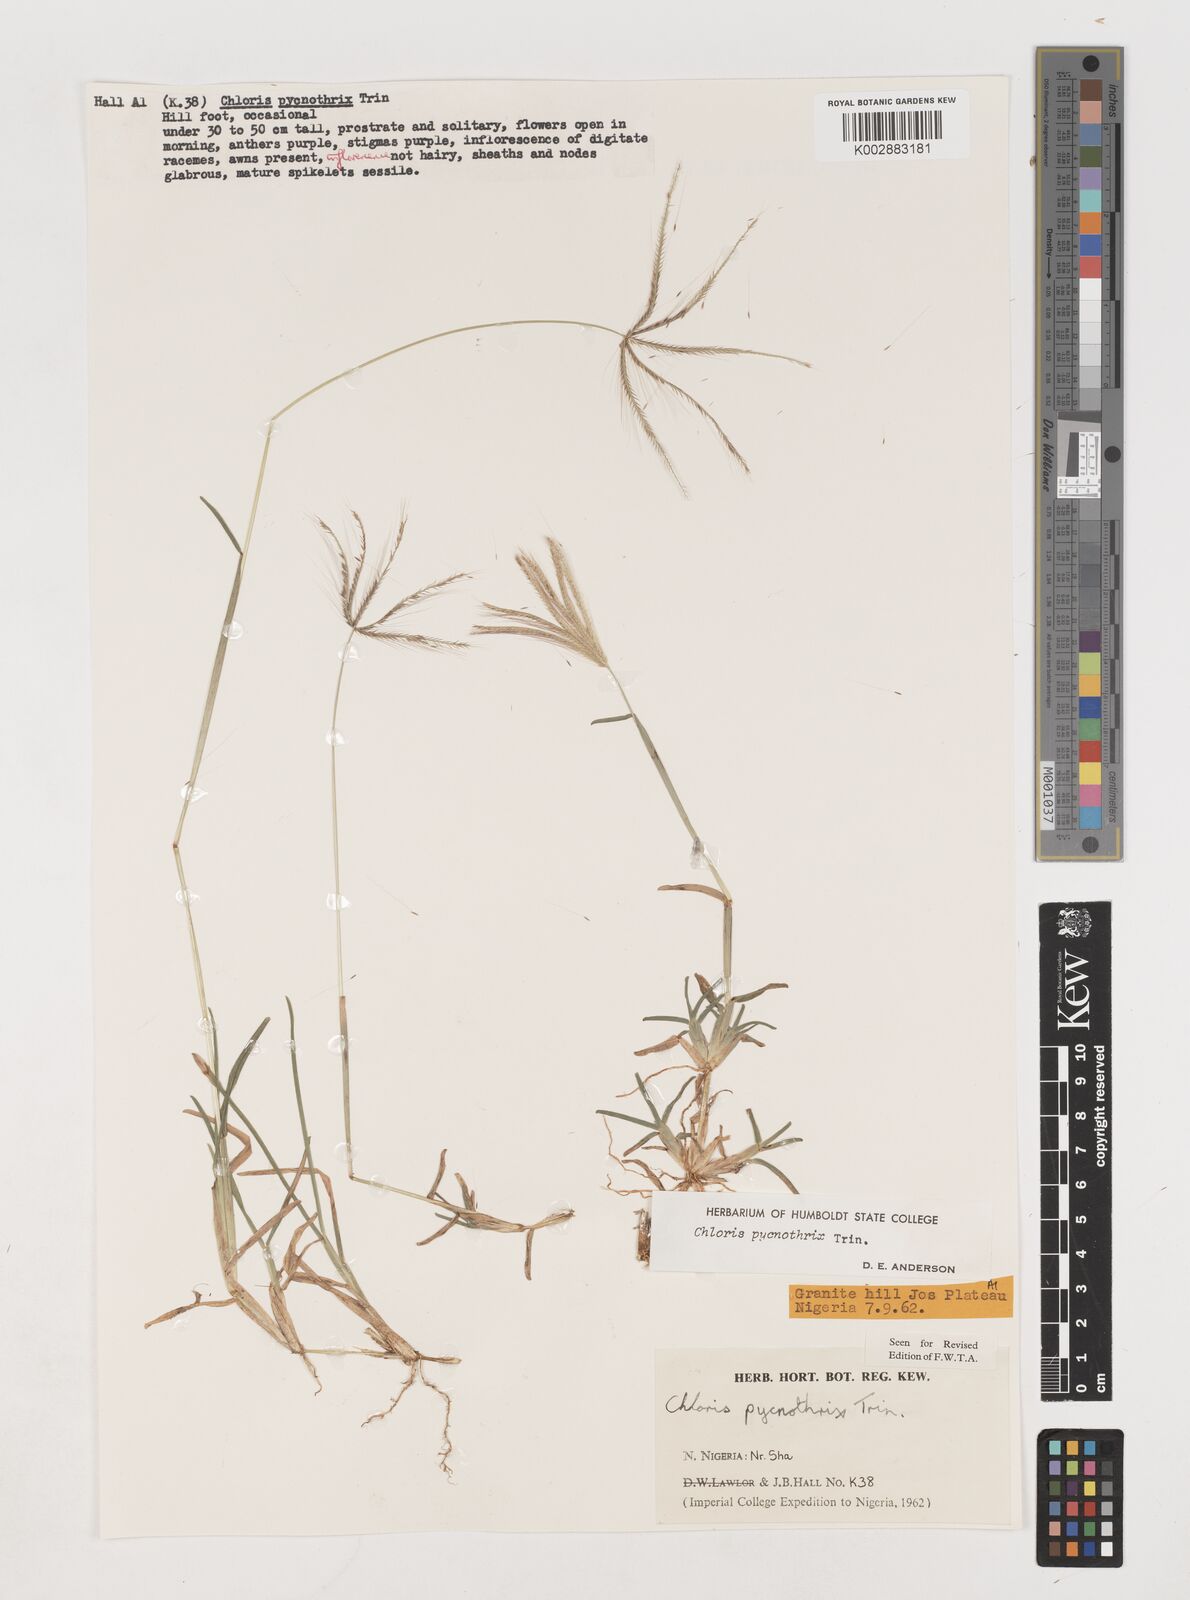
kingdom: Plantae
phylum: Tracheophyta
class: Liliopsida
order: Poales
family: Poaceae
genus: Chloris
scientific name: Chloris pycnothrix
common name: Spiderweb chloris
